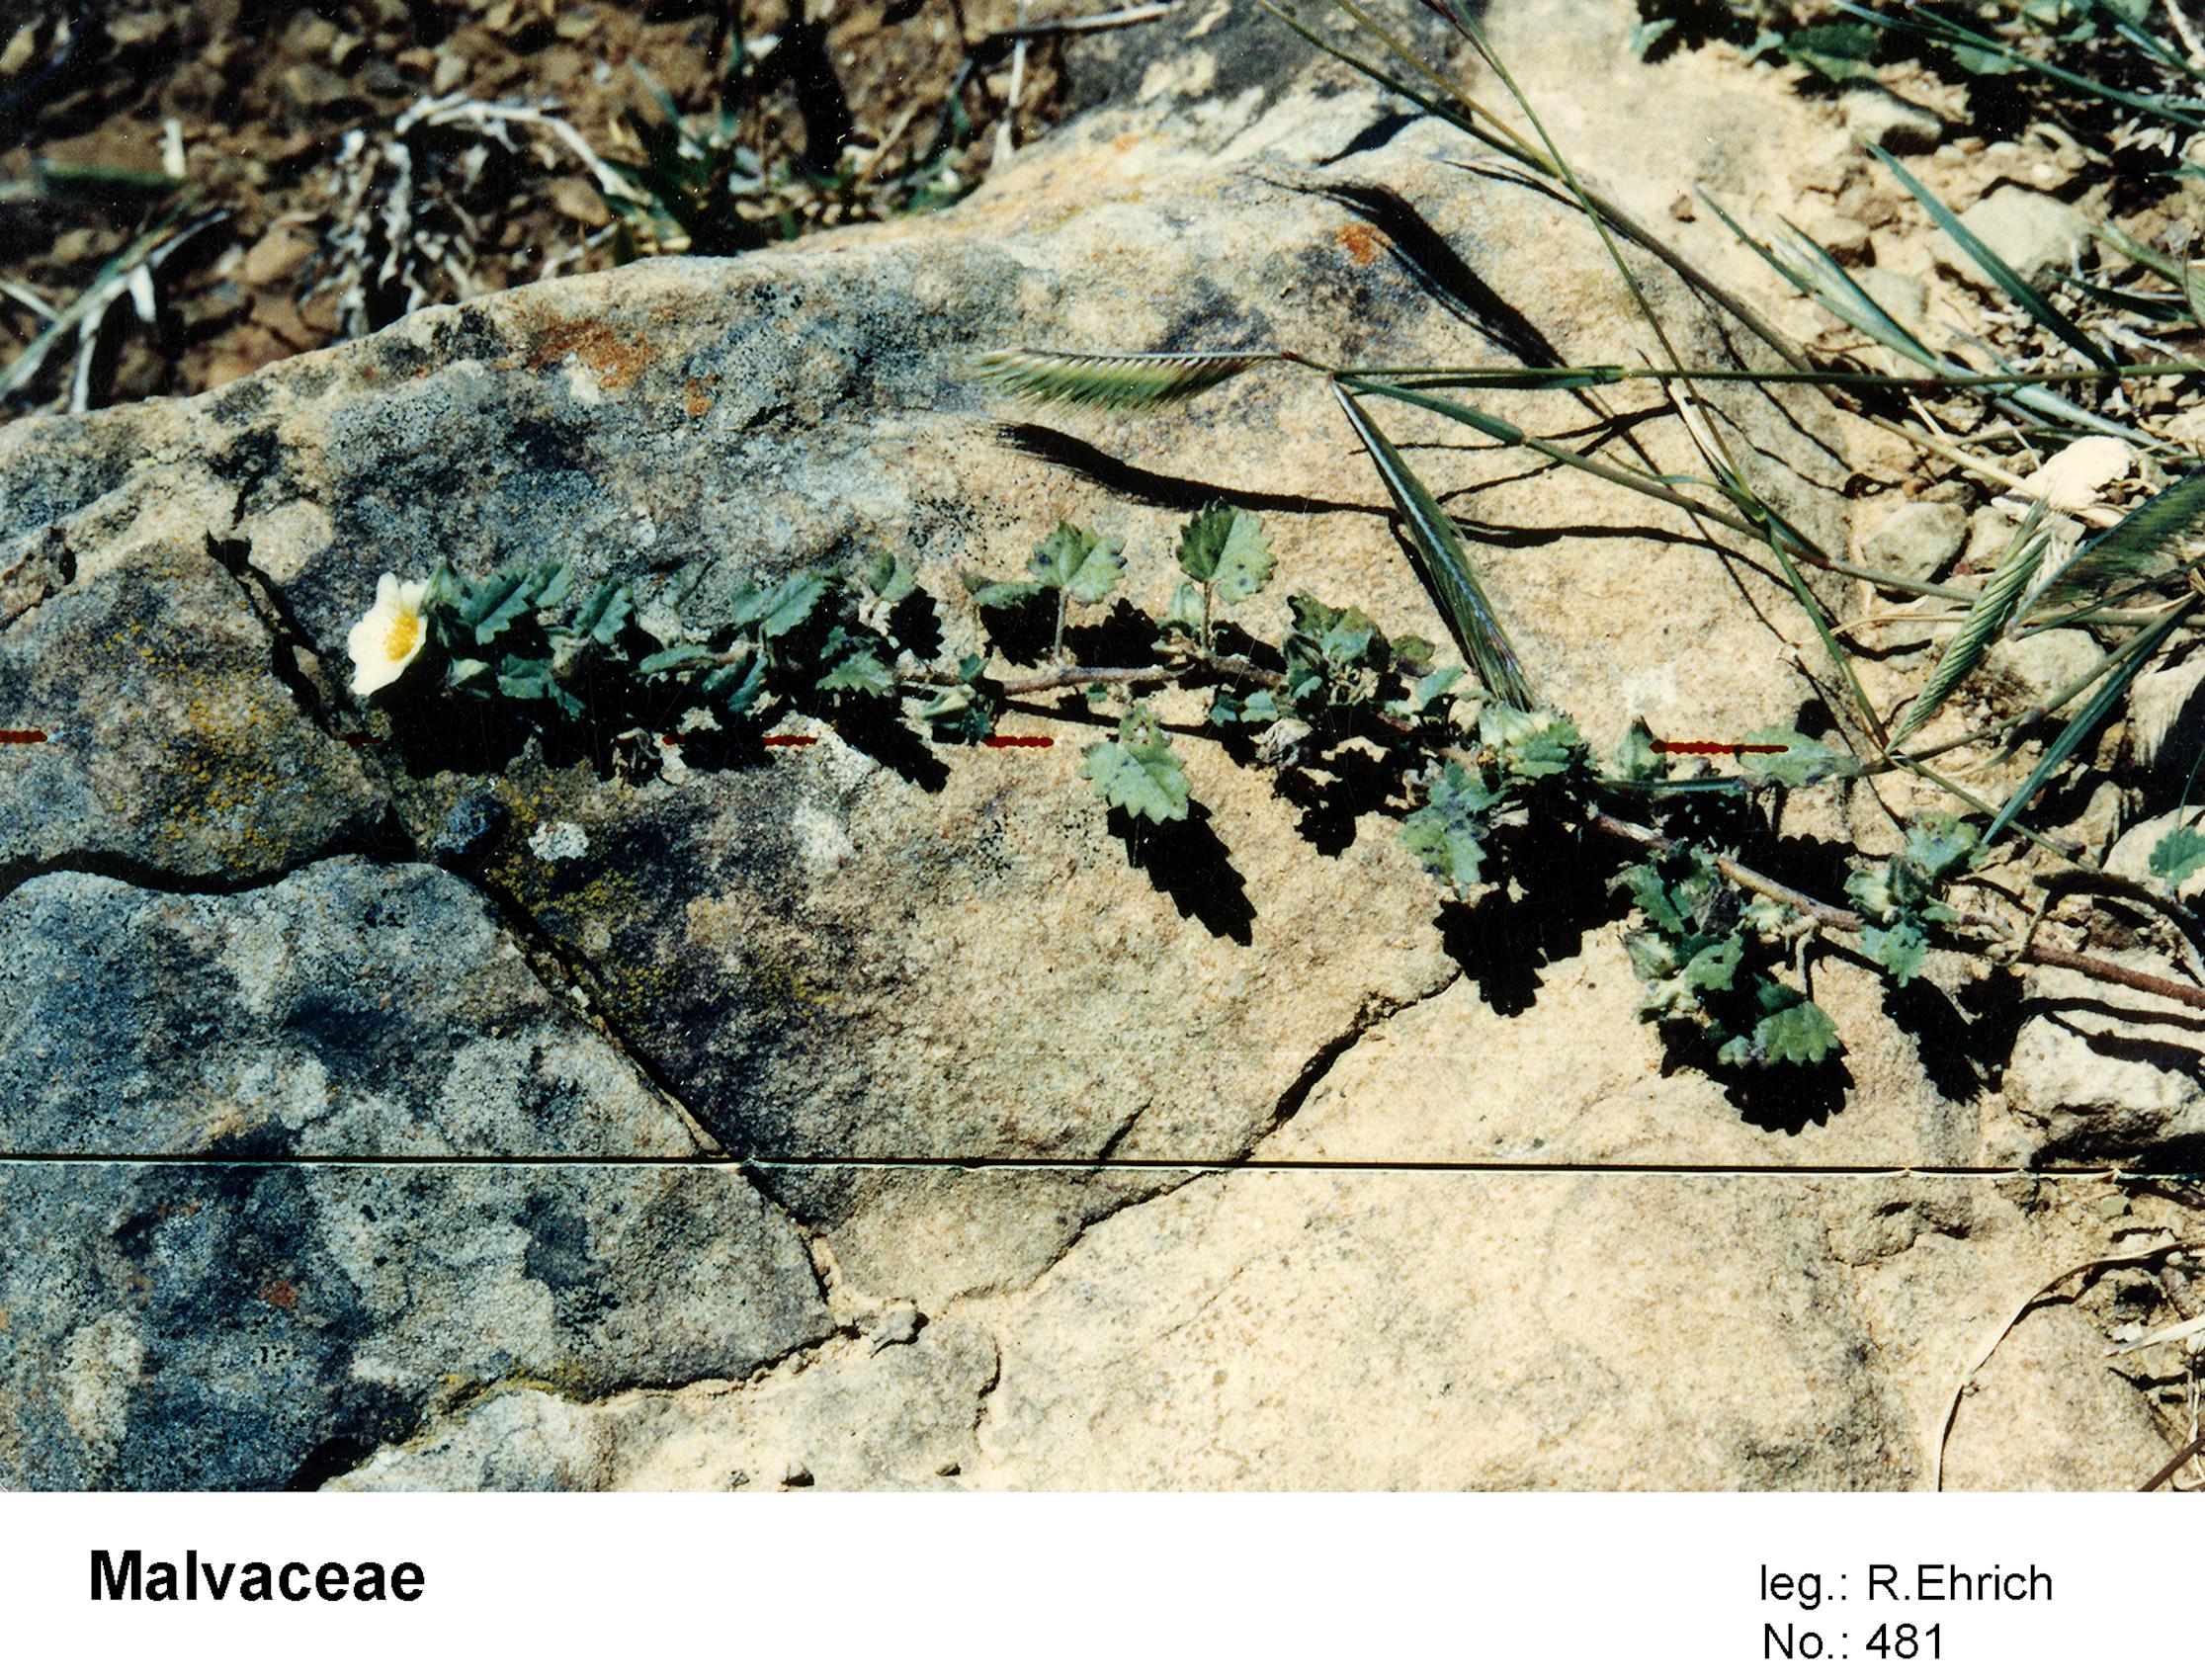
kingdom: Plantae
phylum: Tracheophyta
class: Magnoliopsida
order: Malvales
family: Malvaceae
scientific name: Malvaceae
